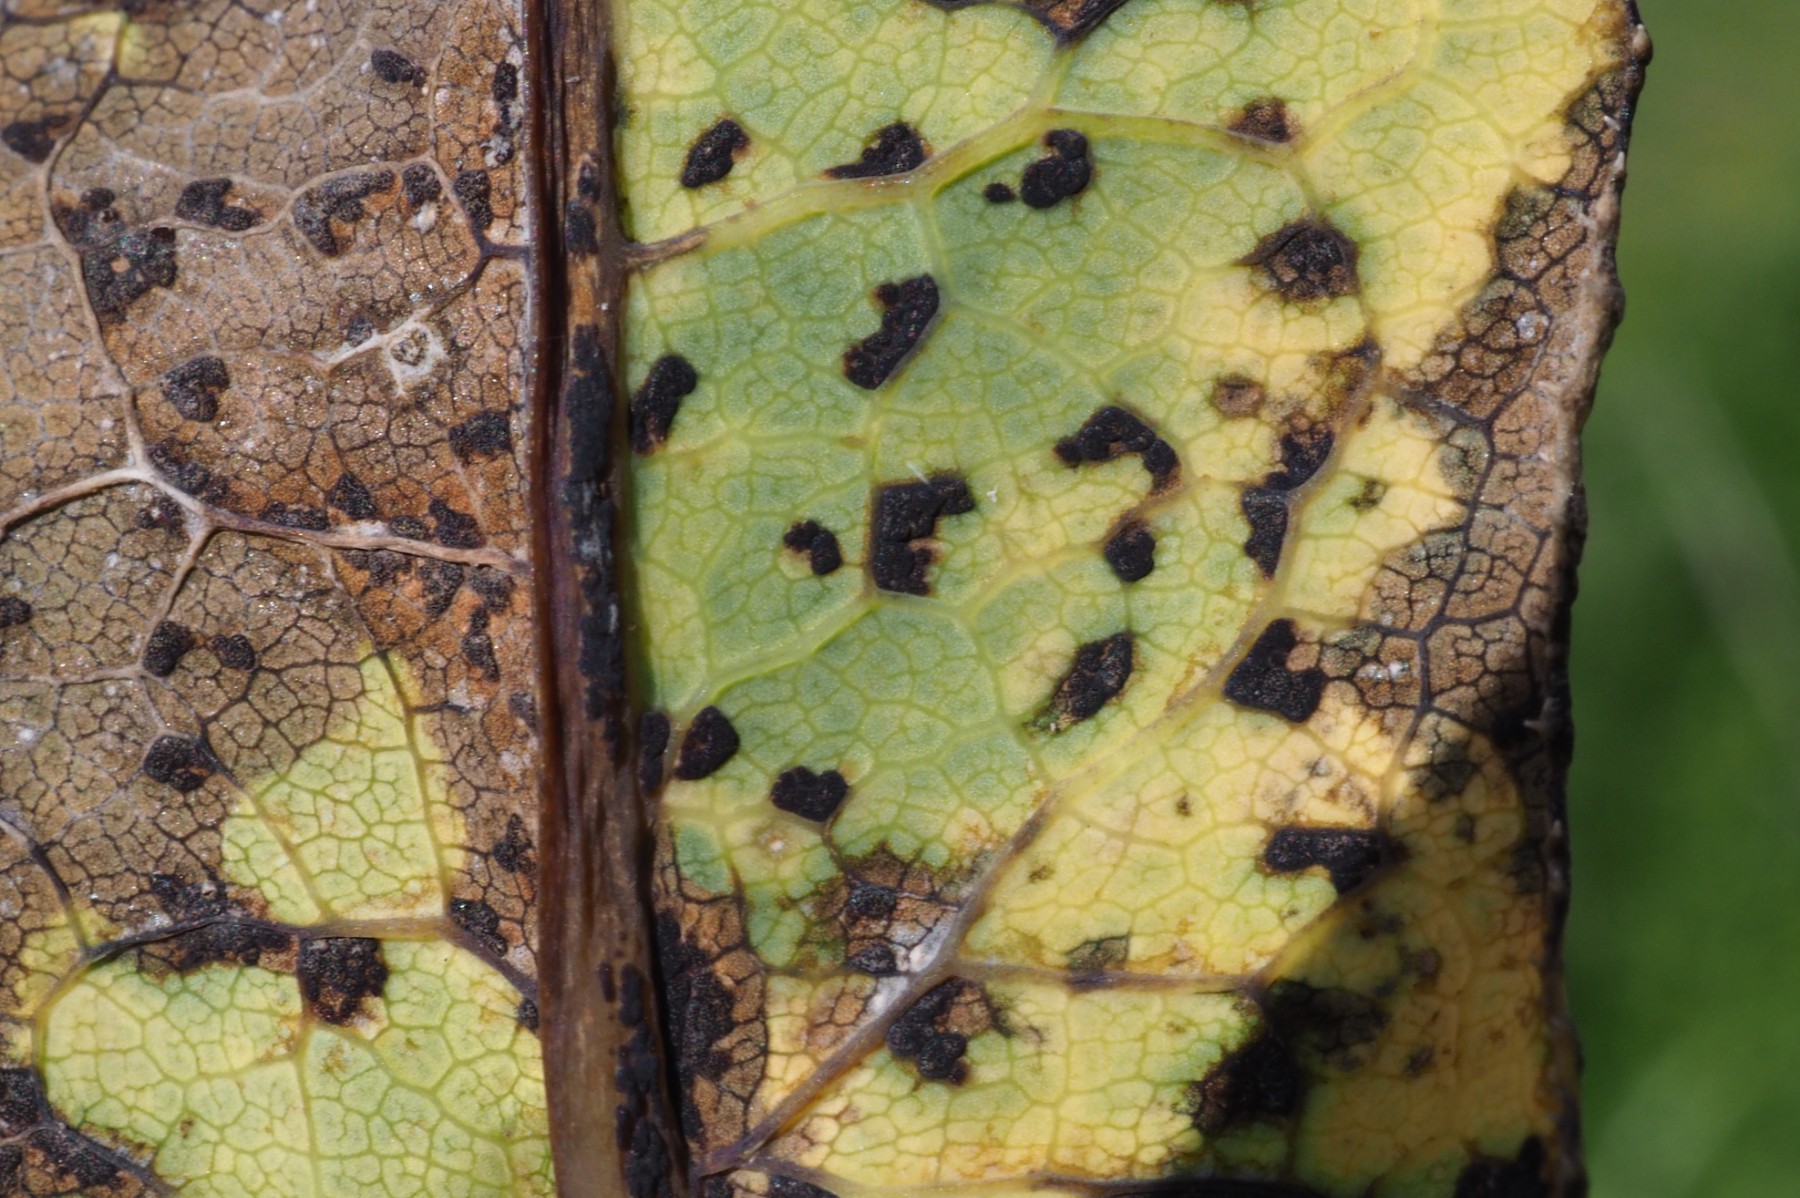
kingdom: Fungi
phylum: Basidiomycota
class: Pucciniomycetes
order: Pucciniales
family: Pucciniaceae
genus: Peristemma
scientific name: Peristemma pseudosphaeria
